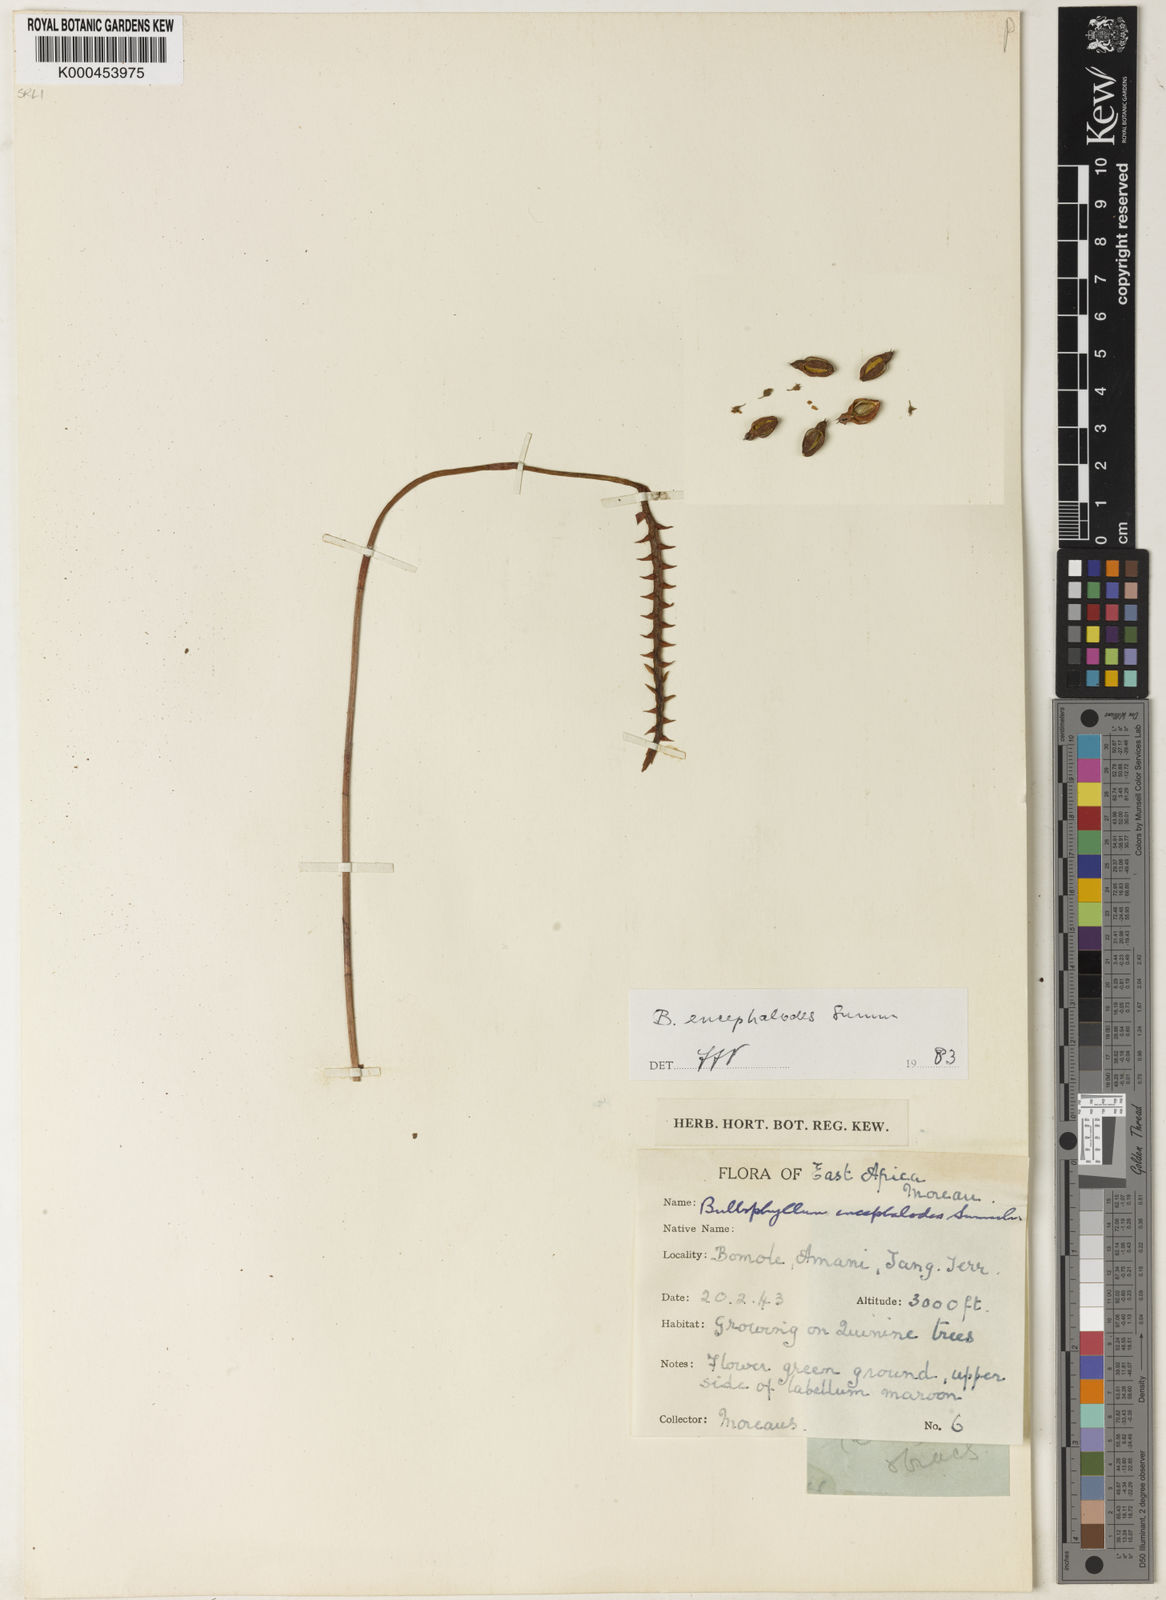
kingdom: Plantae
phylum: Tracheophyta
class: Liliopsida
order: Asparagales
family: Orchidaceae
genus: Bulbophyllum
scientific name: Bulbophyllum encephalodes
